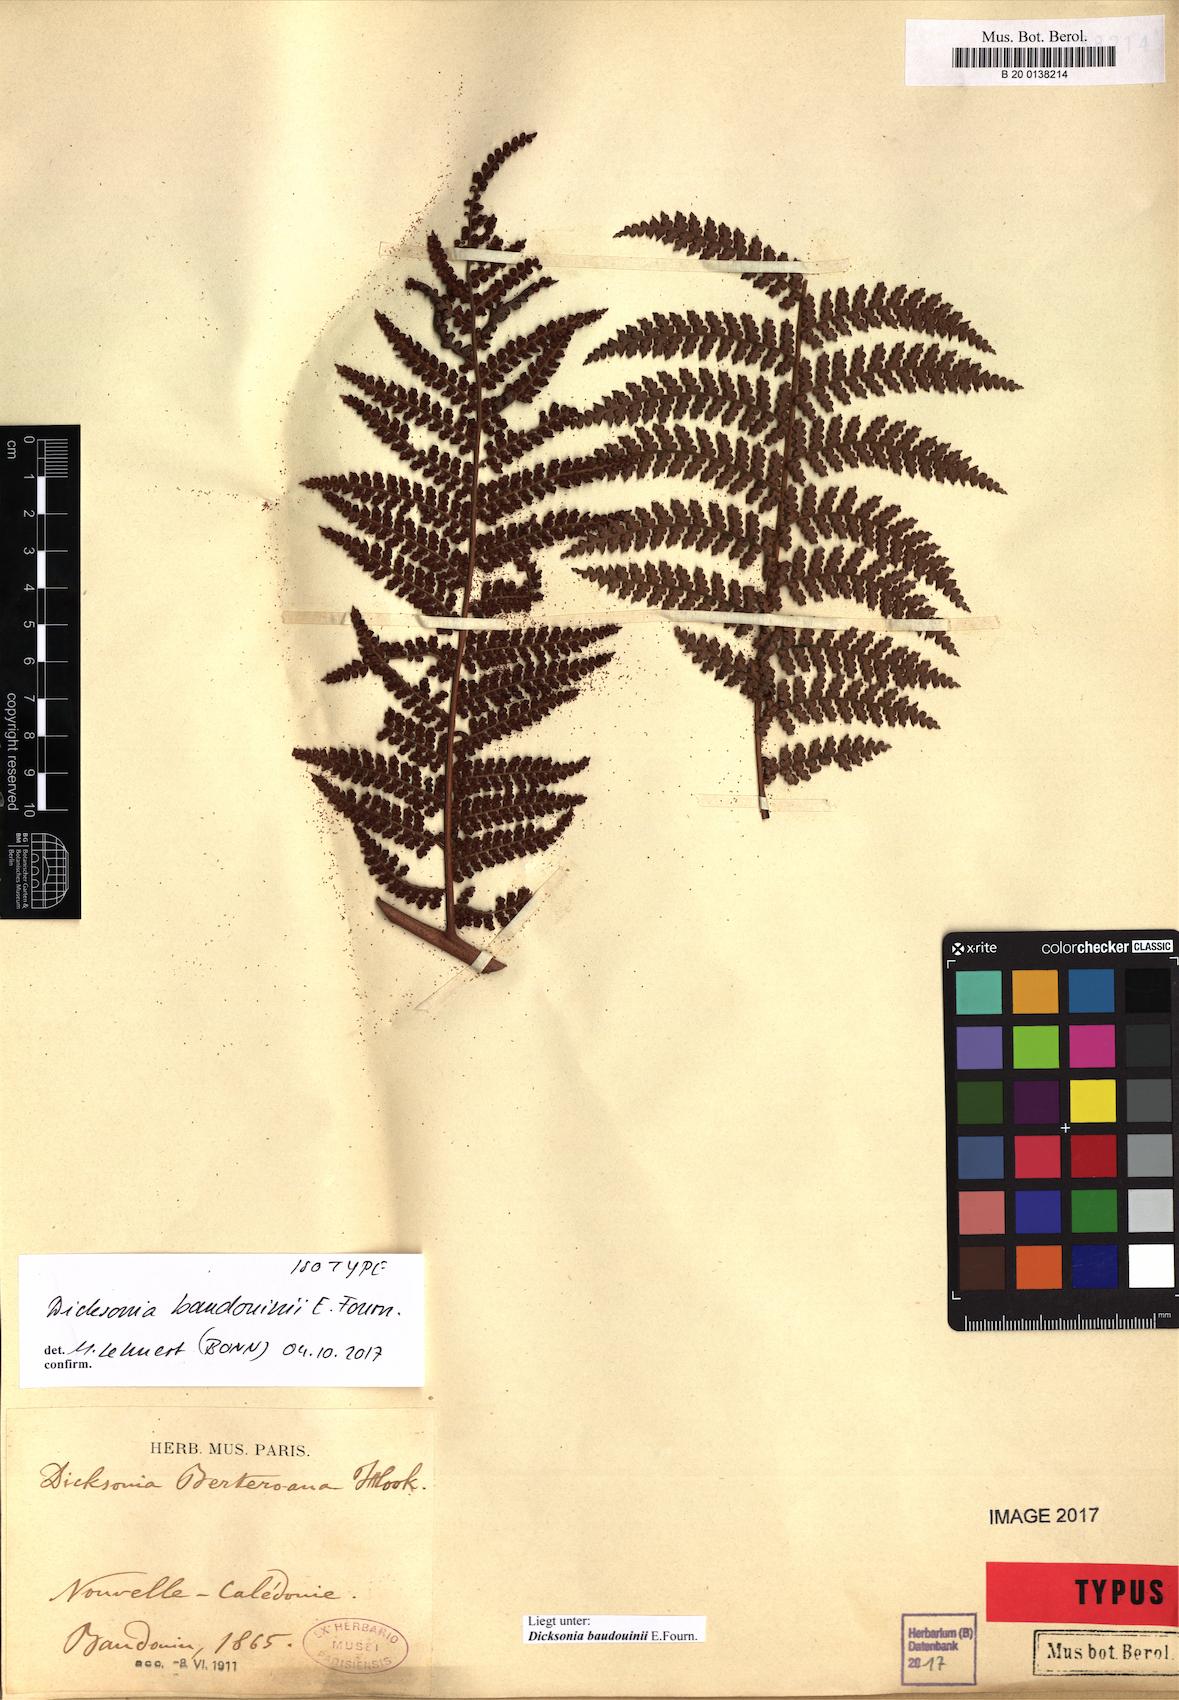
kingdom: Plantae
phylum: Tracheophyta
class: Polypodiopsida
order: Cyatheales
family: Dicksoniaceae
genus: Dicksonia
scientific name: Dicksonia baudouinii
